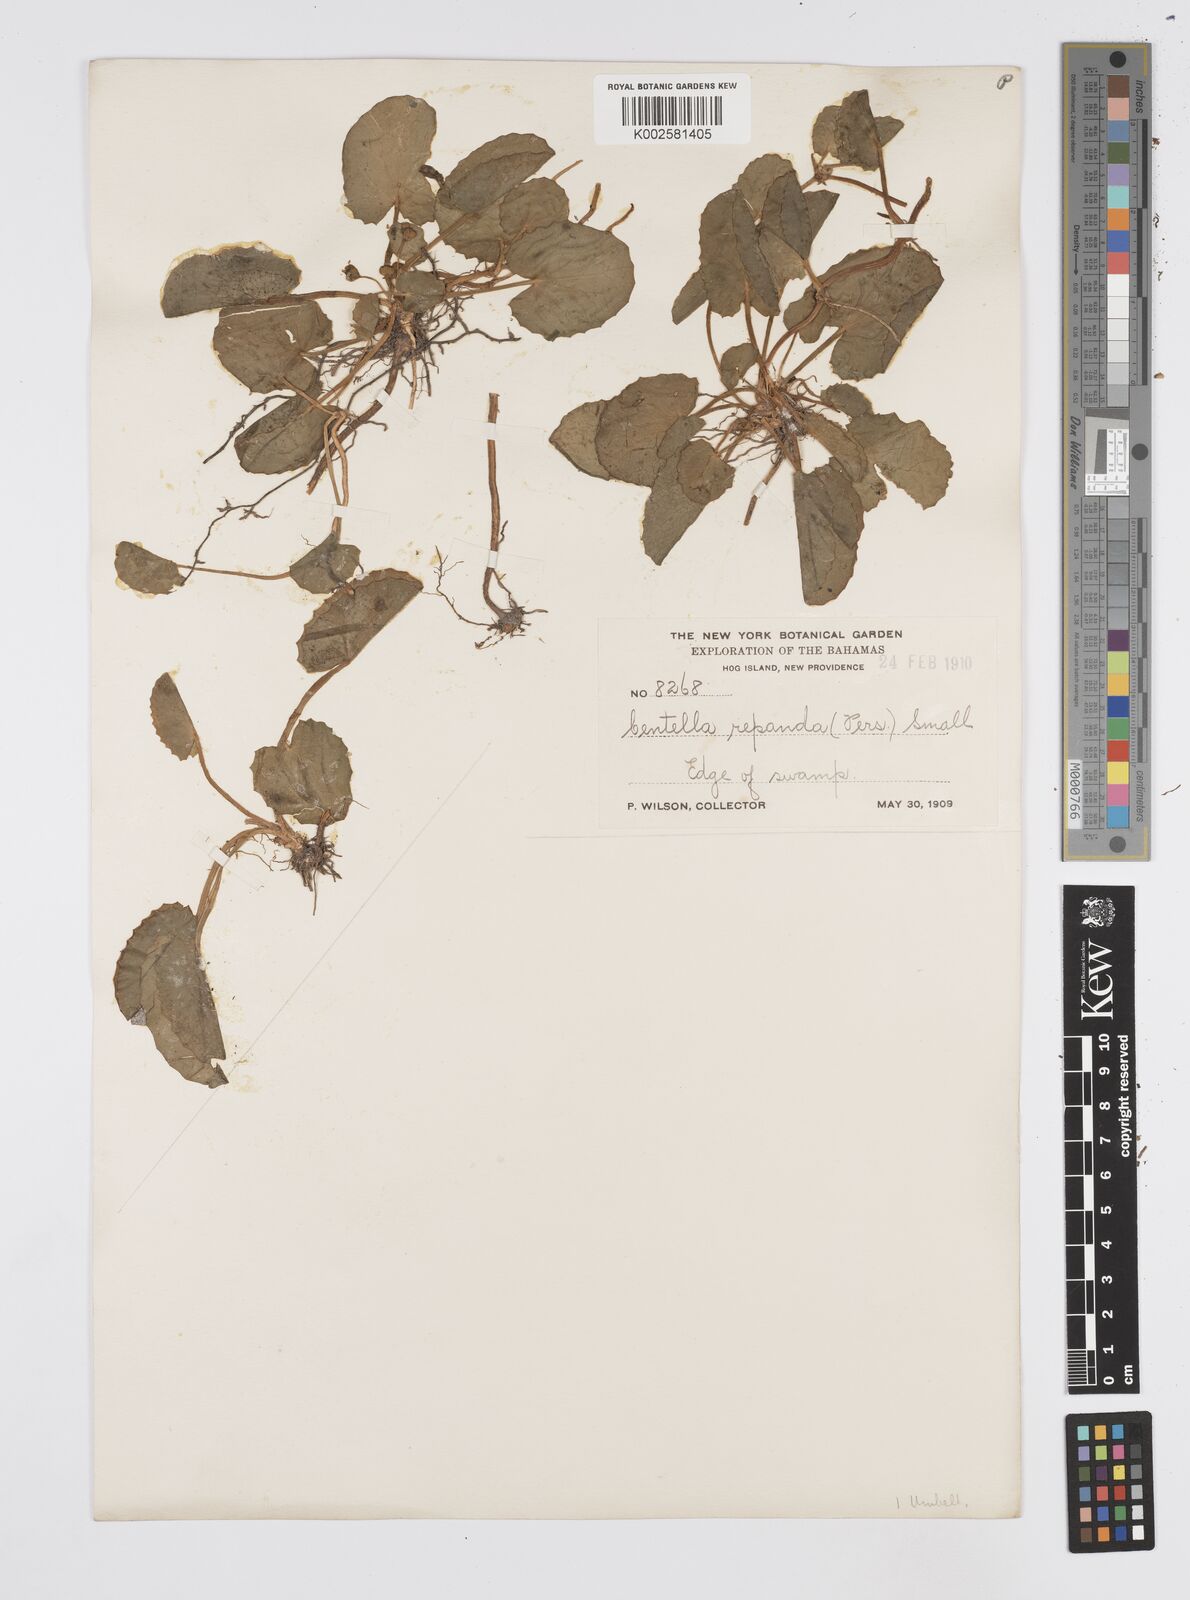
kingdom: Plantae
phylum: Tracheophyta
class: Magnoliopsida
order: Apiales
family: Apiaceae
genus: Centella
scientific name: Centella asiatica
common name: Spadeleaf
